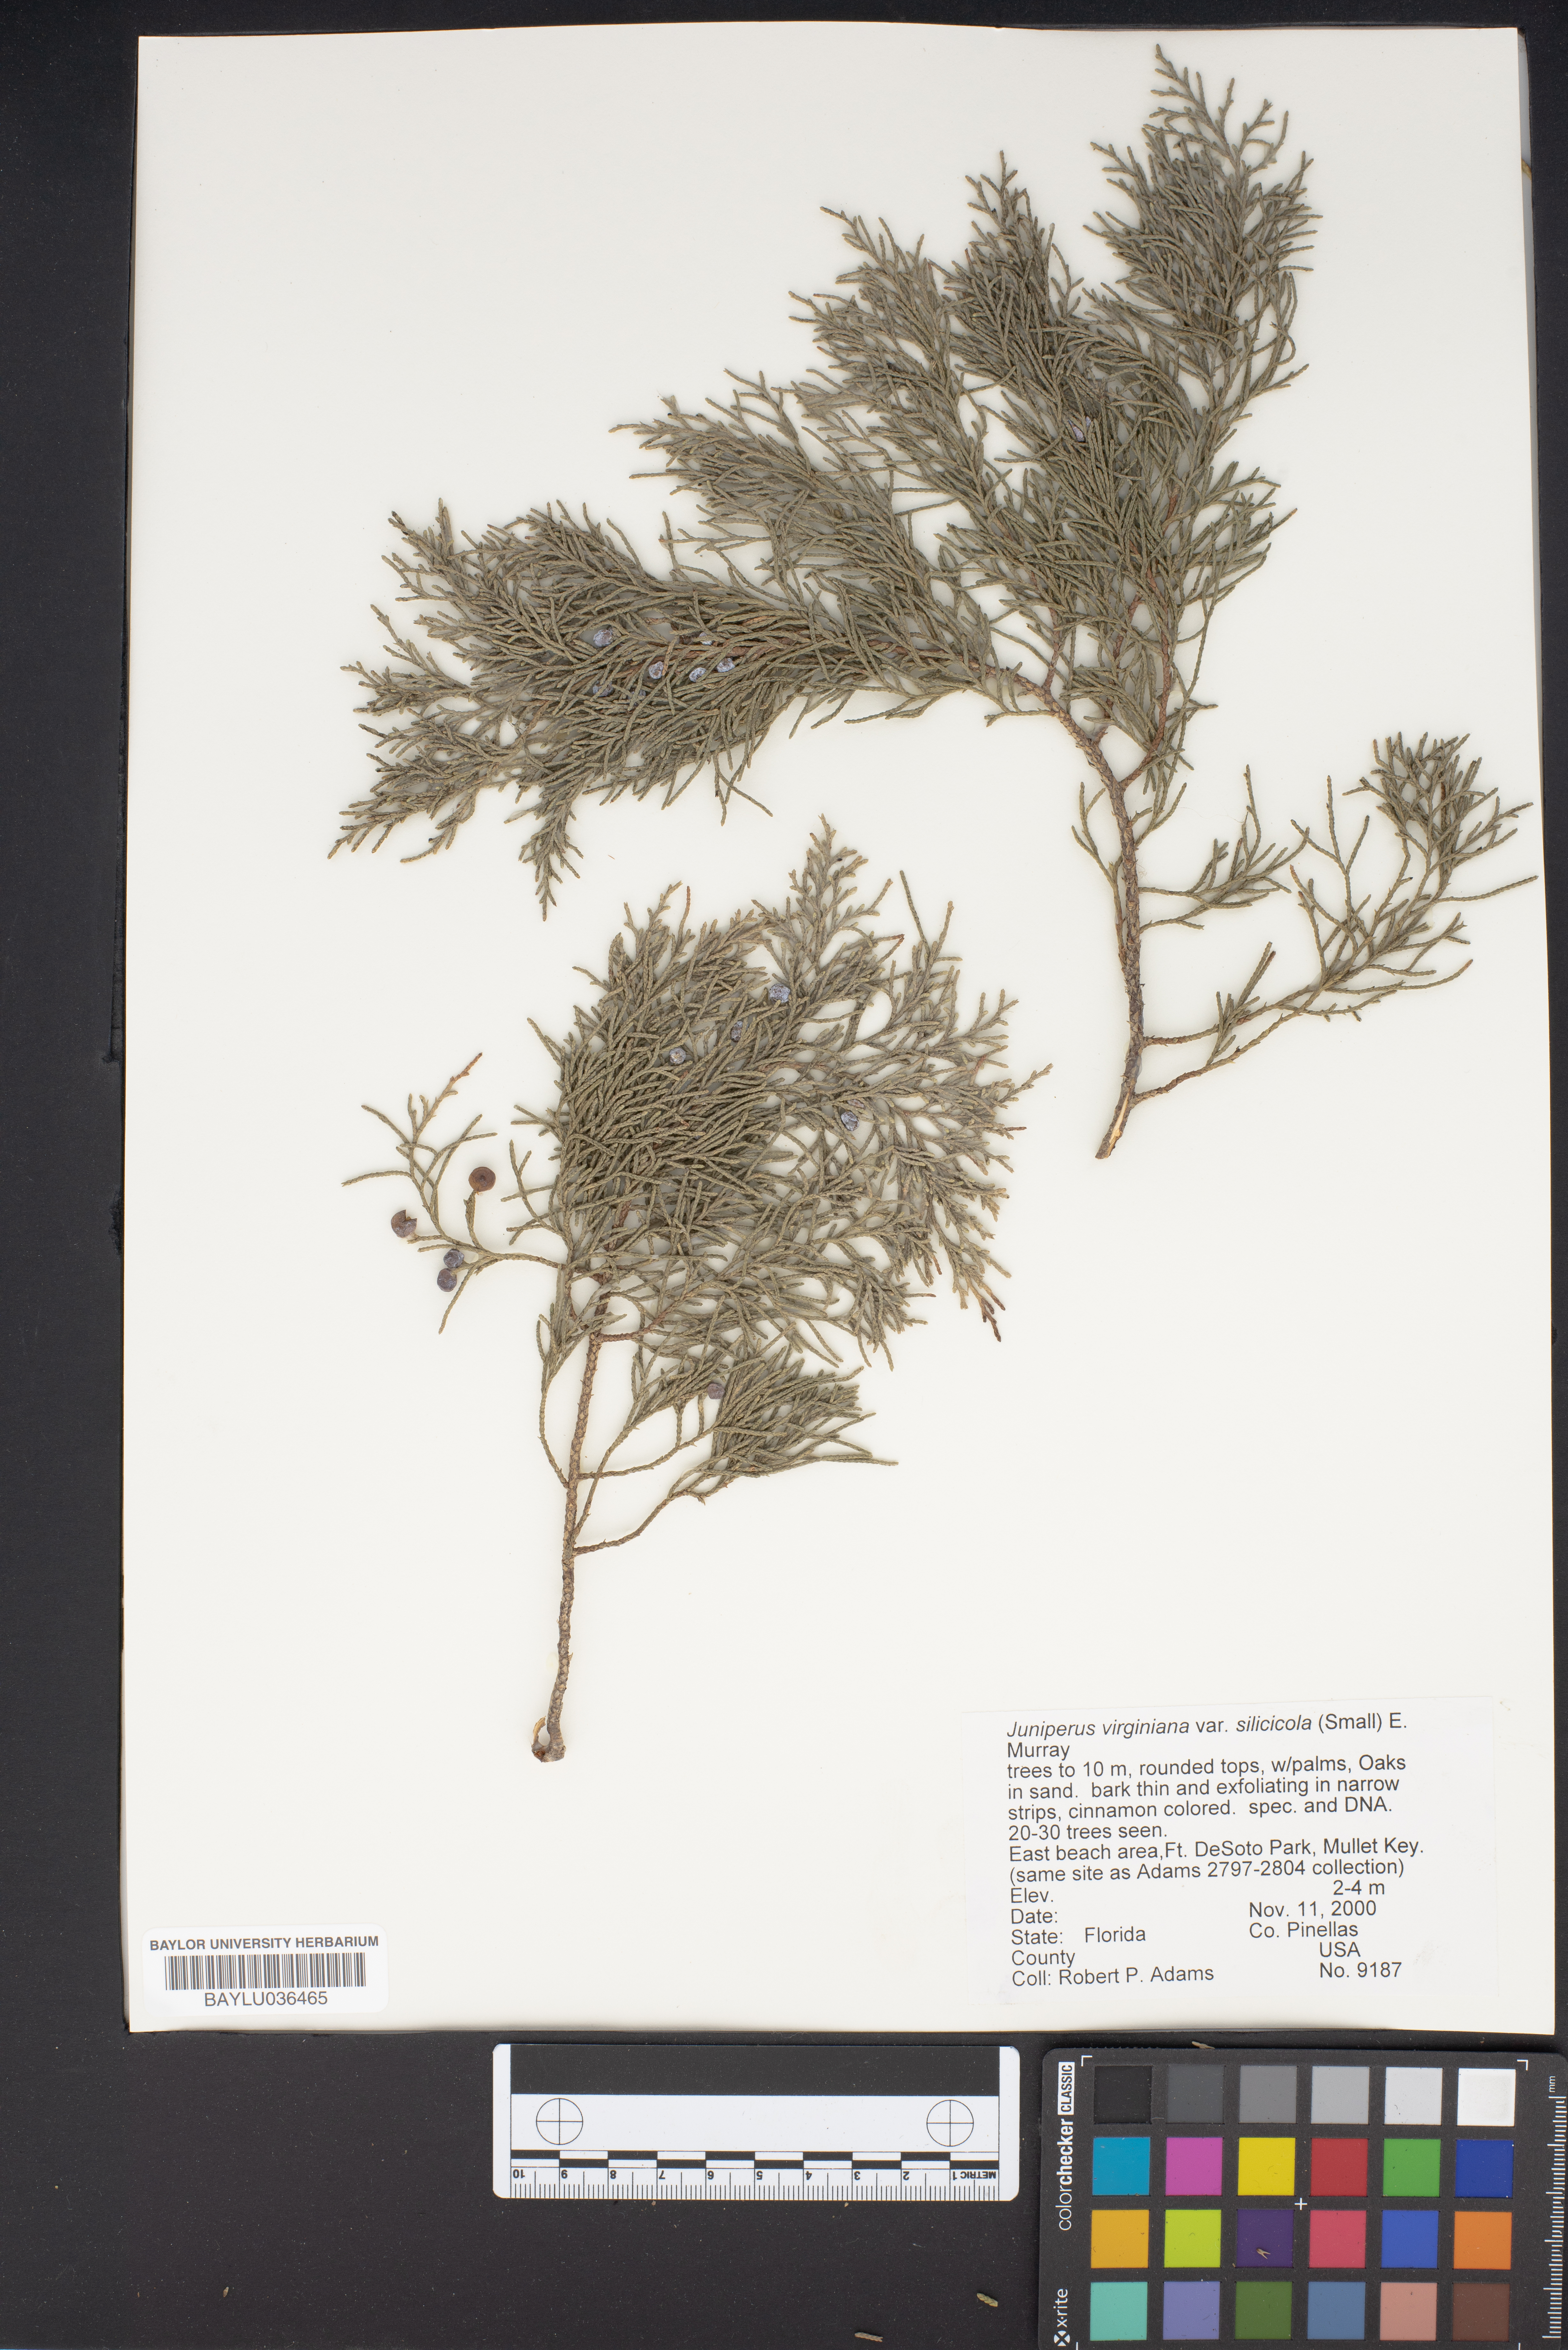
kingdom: Plantae
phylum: Tracheophyta
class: Pinopsida
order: Pinales
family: Cupressaceae
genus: Juniperus
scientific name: Juniperus virginiana
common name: Red juniper
